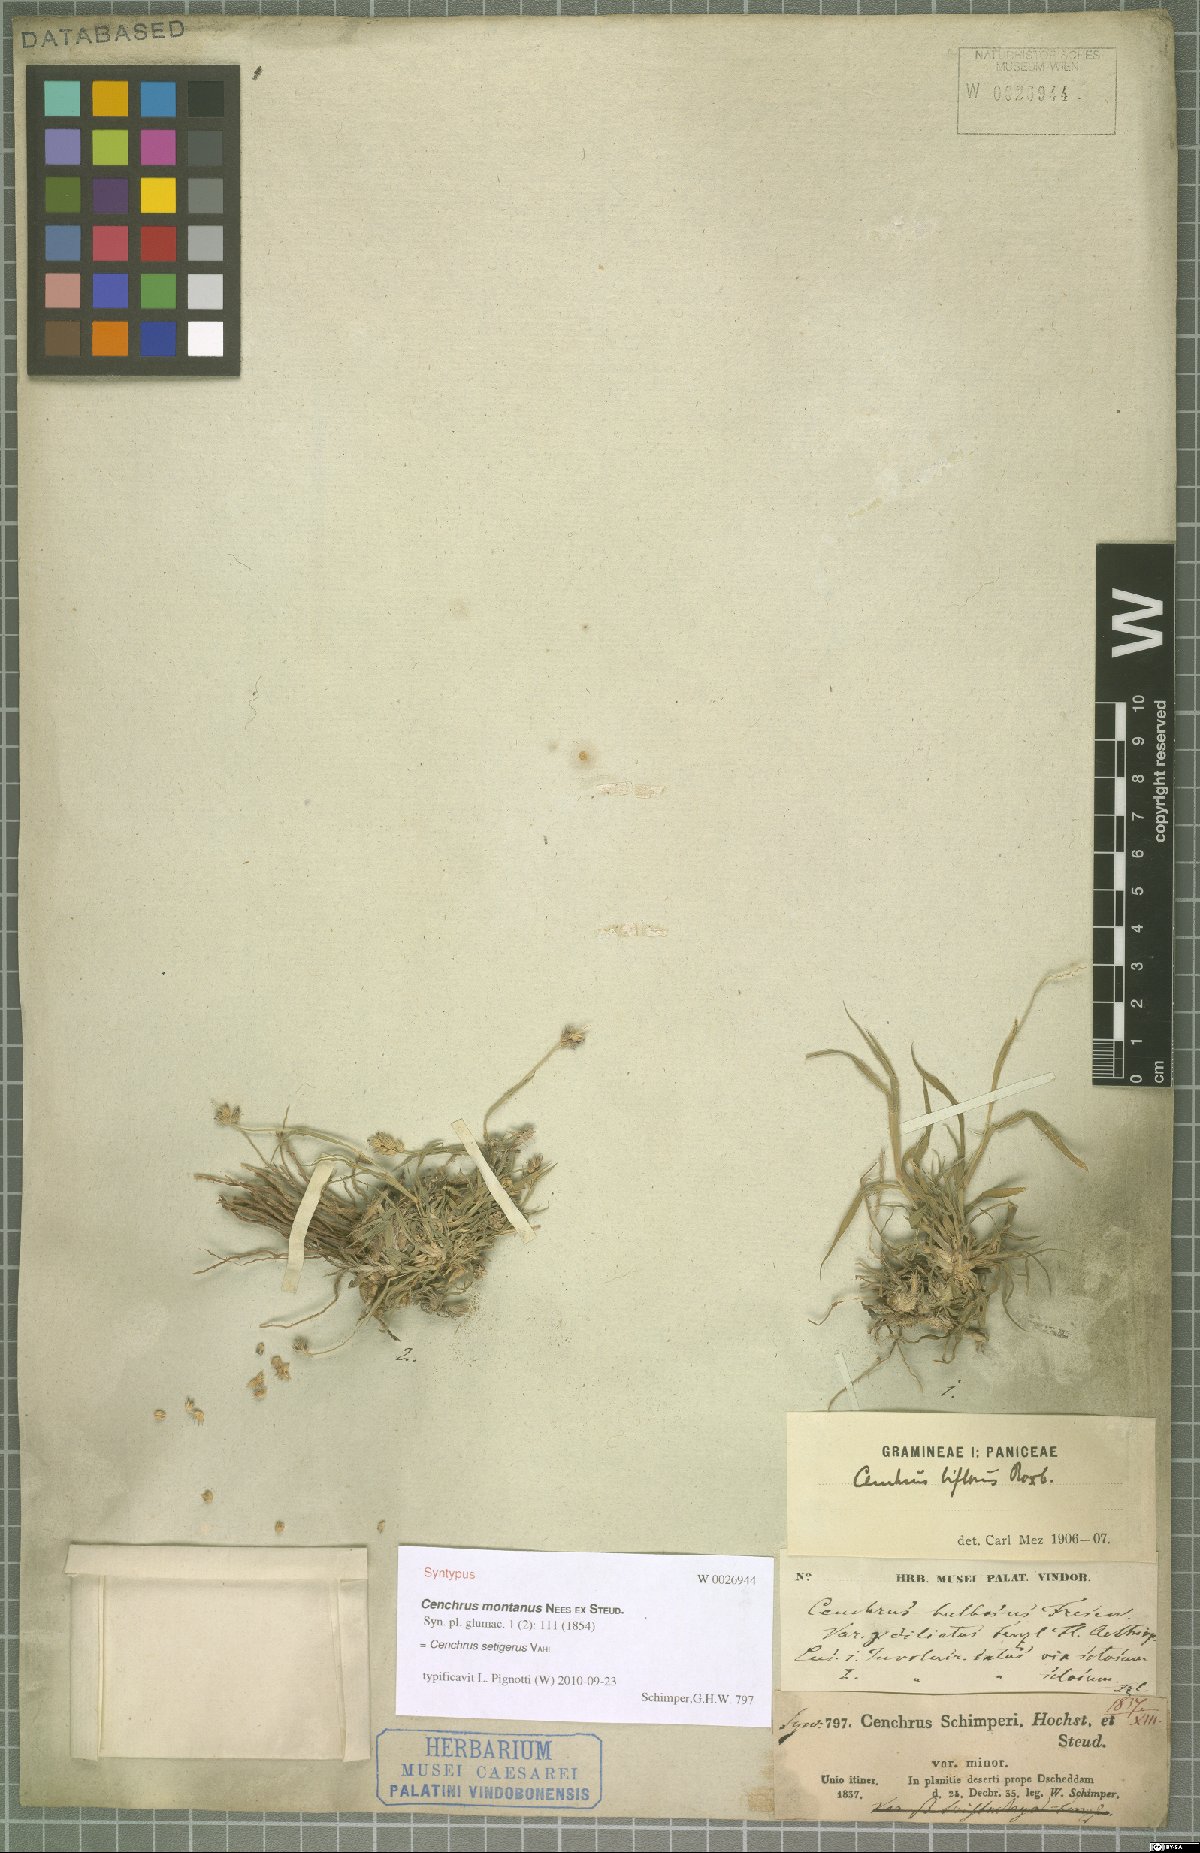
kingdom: Plantae
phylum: Tracheophyta
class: Liliopsida
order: Poales
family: Poaceae
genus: Cenchrus
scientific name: Cenchrus setigerus
